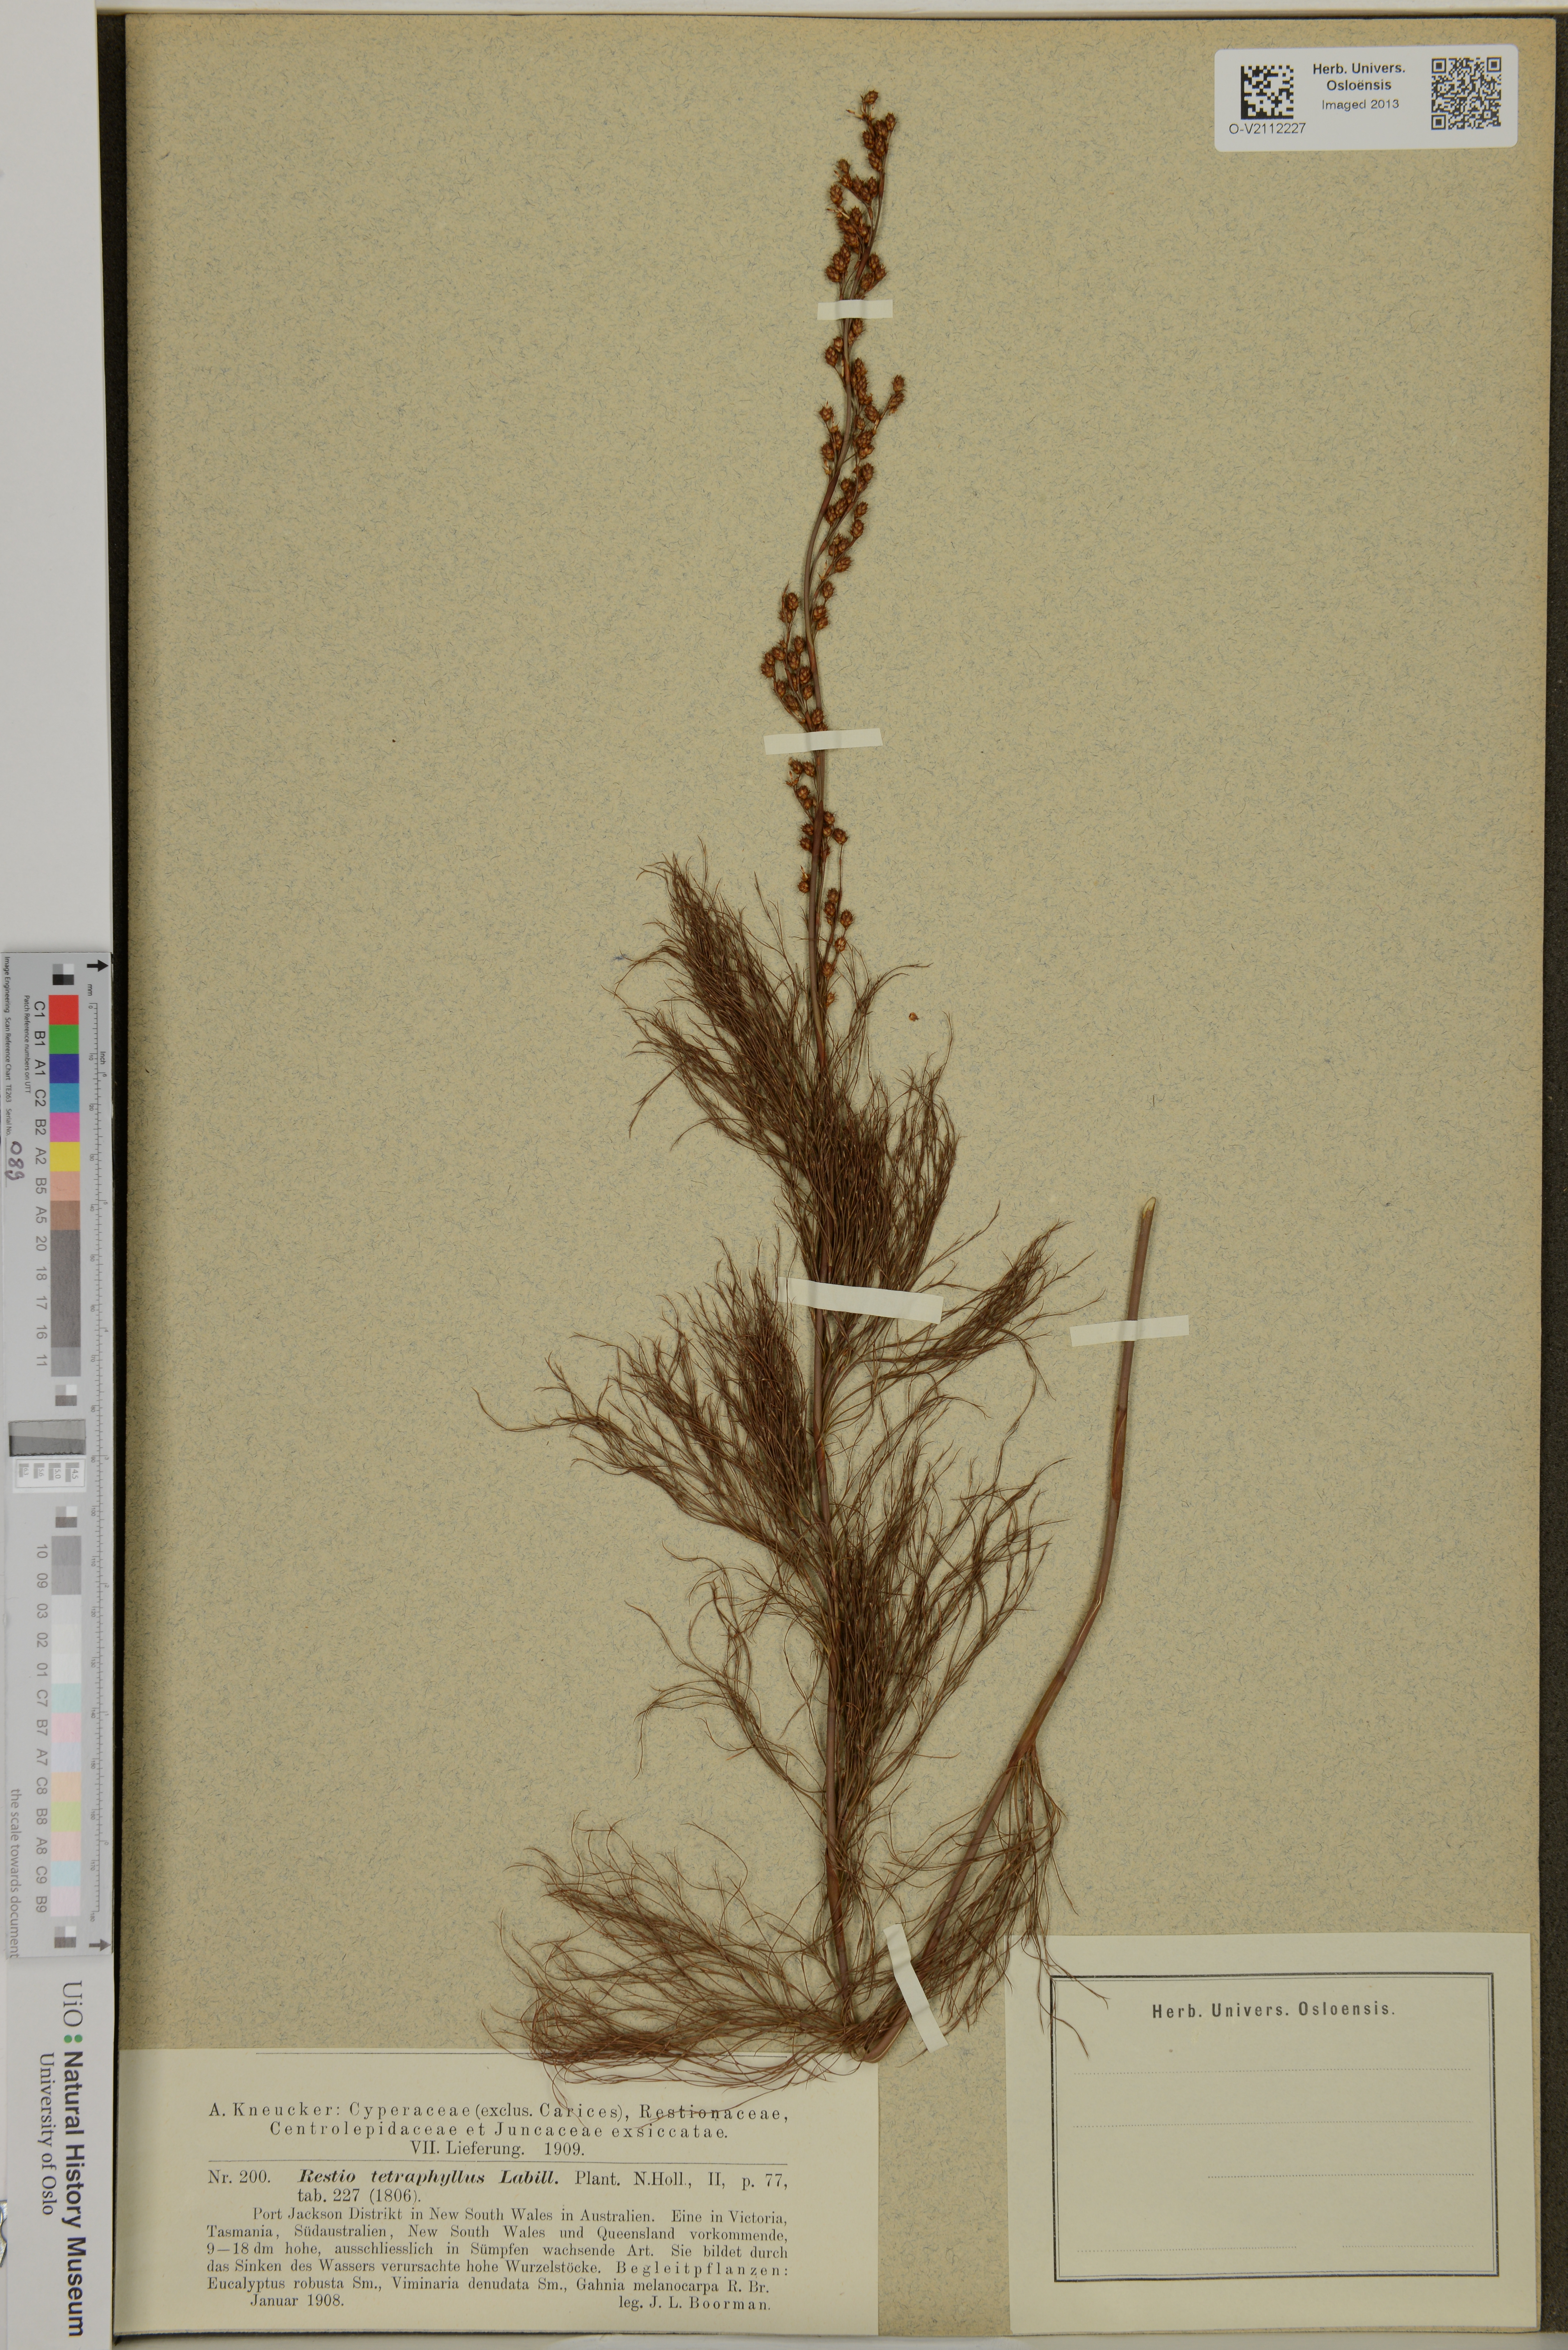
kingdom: Plantae
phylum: Tracheophyta
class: Liliopsida
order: Poales
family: Restionaceae
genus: Baloskion
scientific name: Baloskion tetraphyllum
